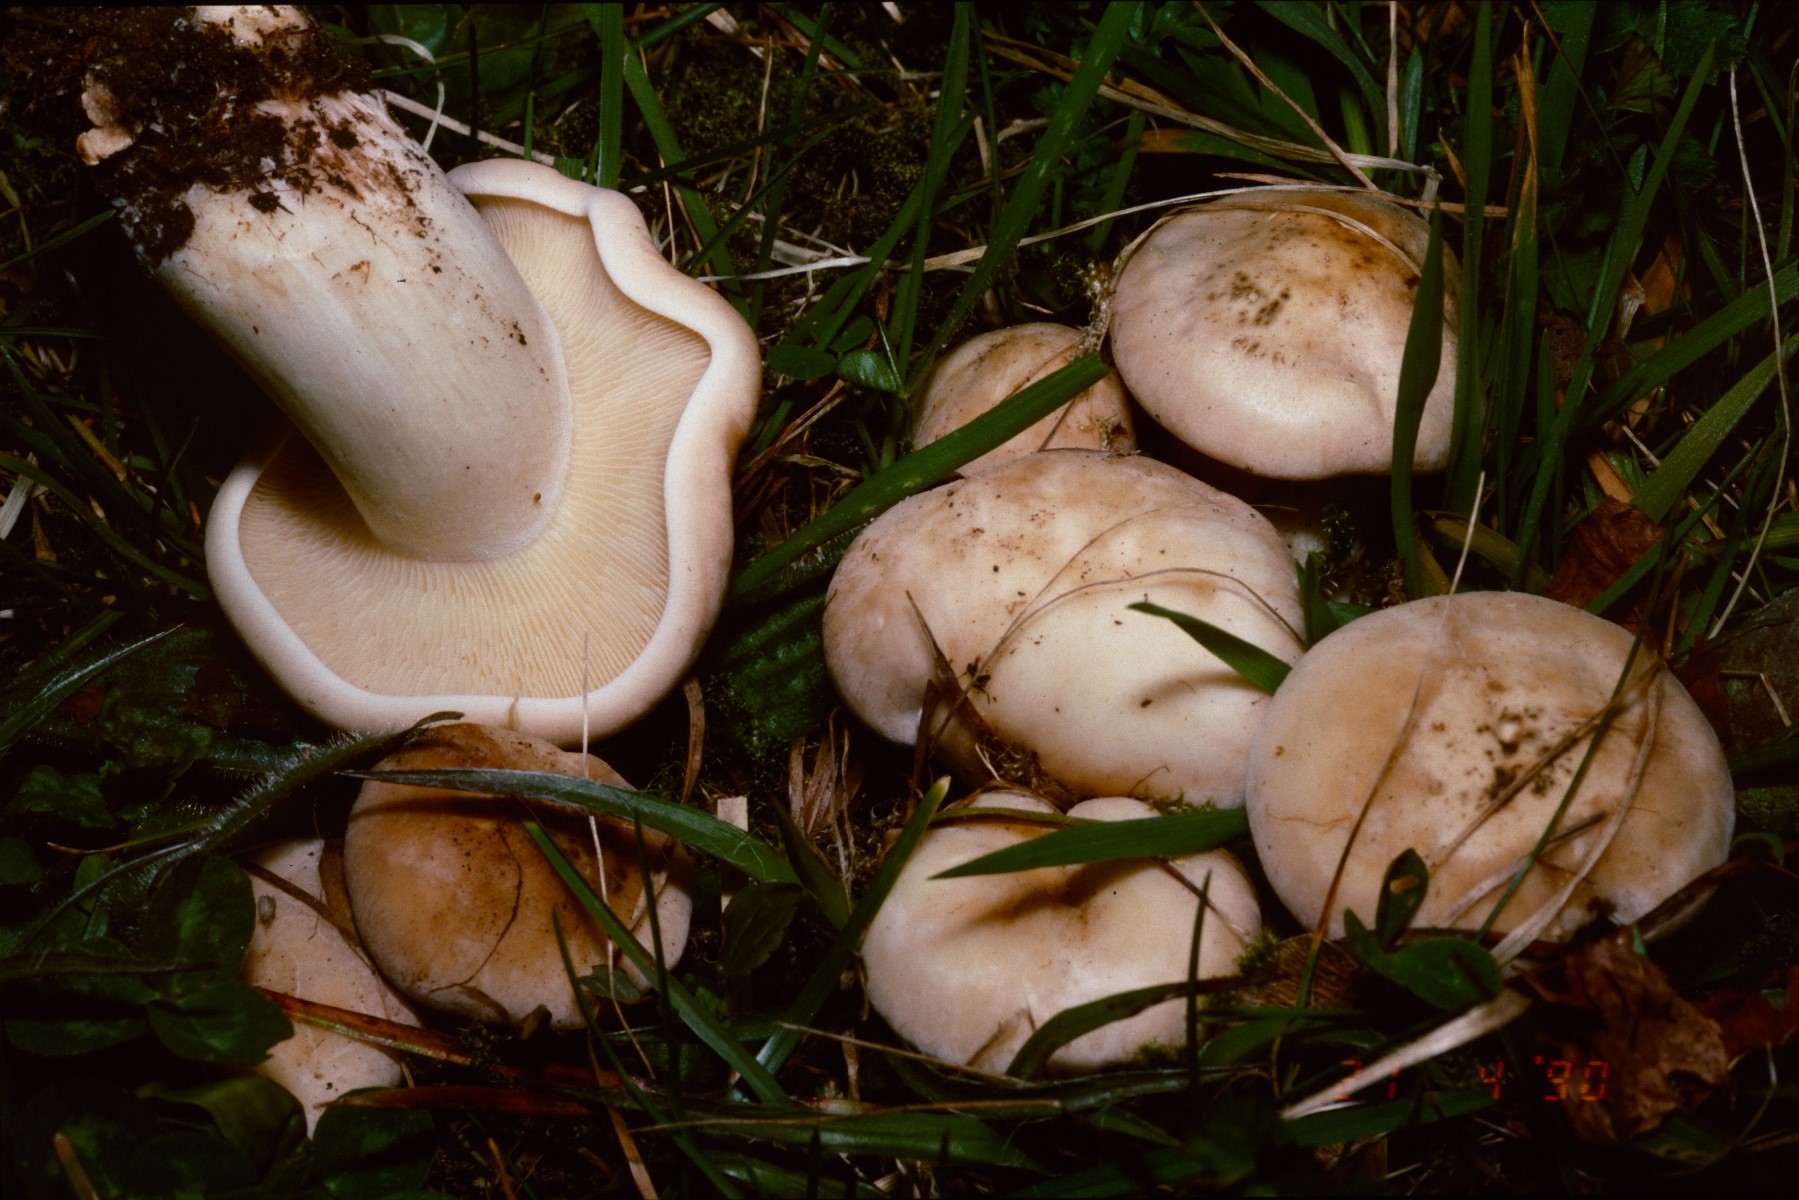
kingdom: Fungi
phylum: Basidiomycota
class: Agaricomycetes
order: Agaricales
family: Lyophyllaceae
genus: Calocybe
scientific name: Calocybe gambosa
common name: vårmusseron
